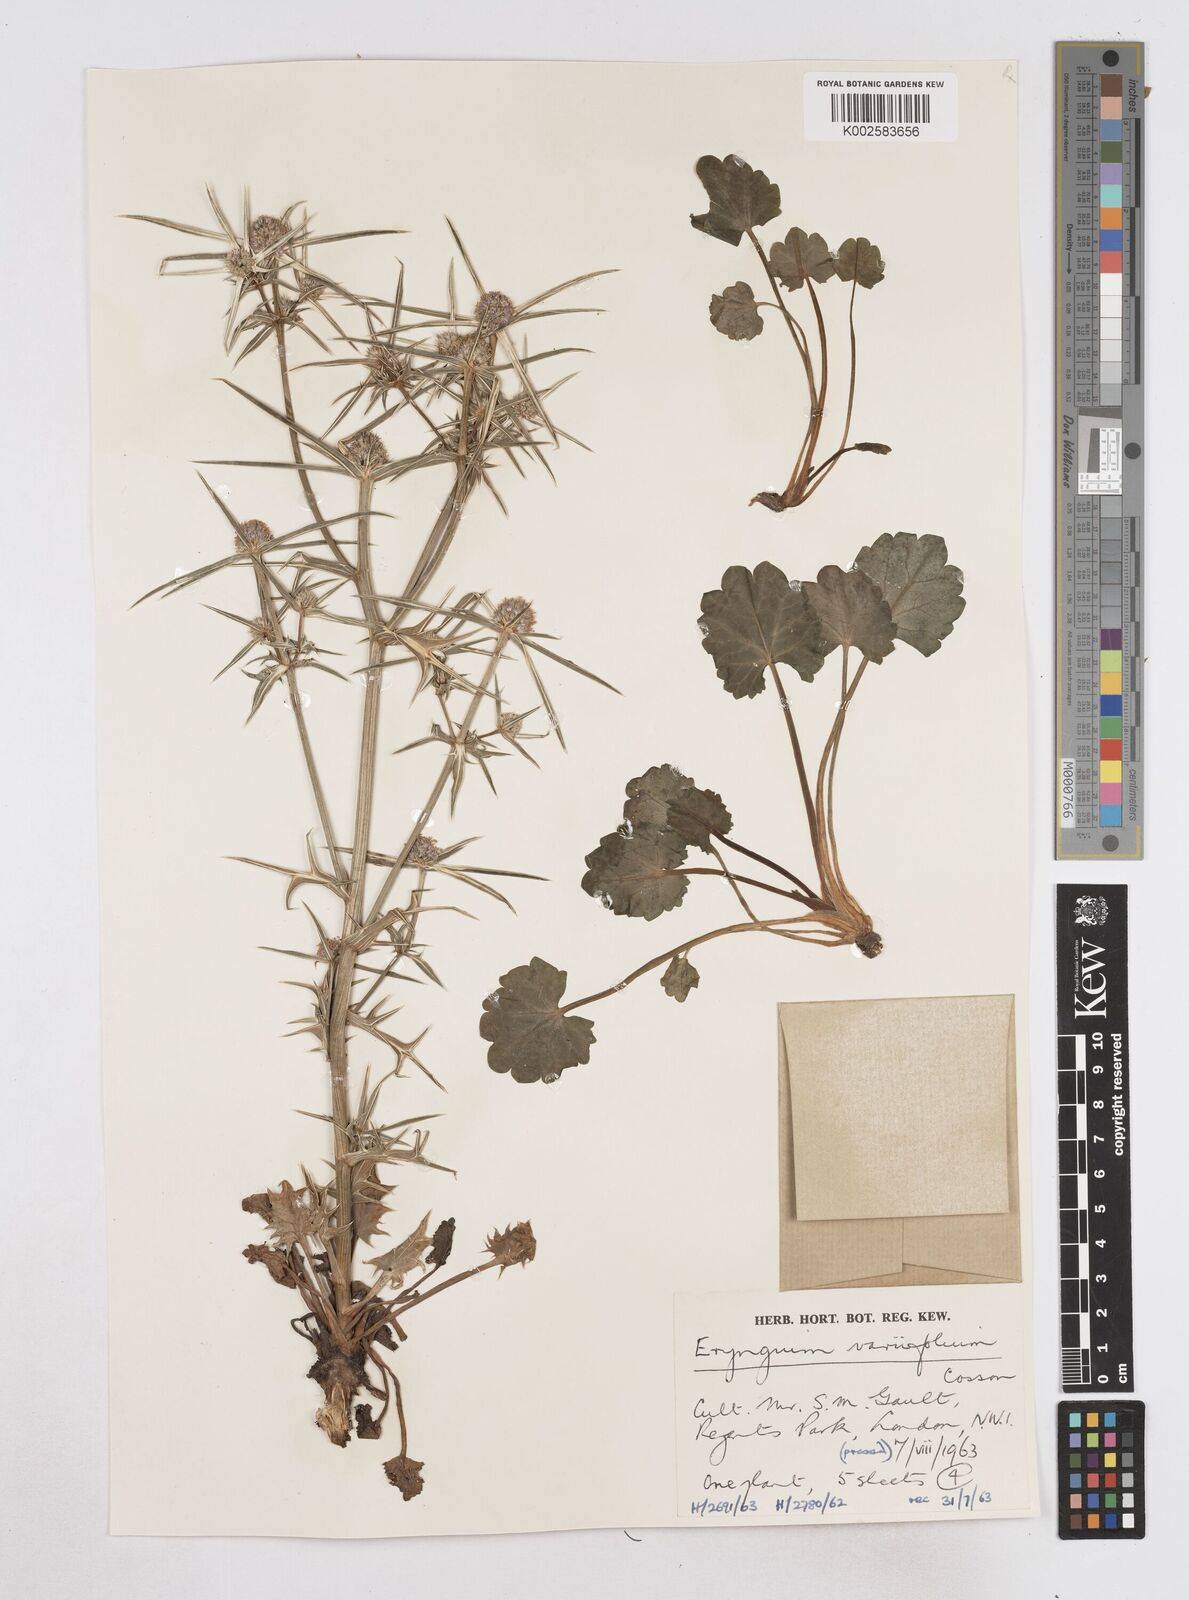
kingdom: Plantae
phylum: Tracheophyta
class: Magnoliopsida
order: Apiales
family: Apiaceae
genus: Eryngium
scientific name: Eryngium variifolium
